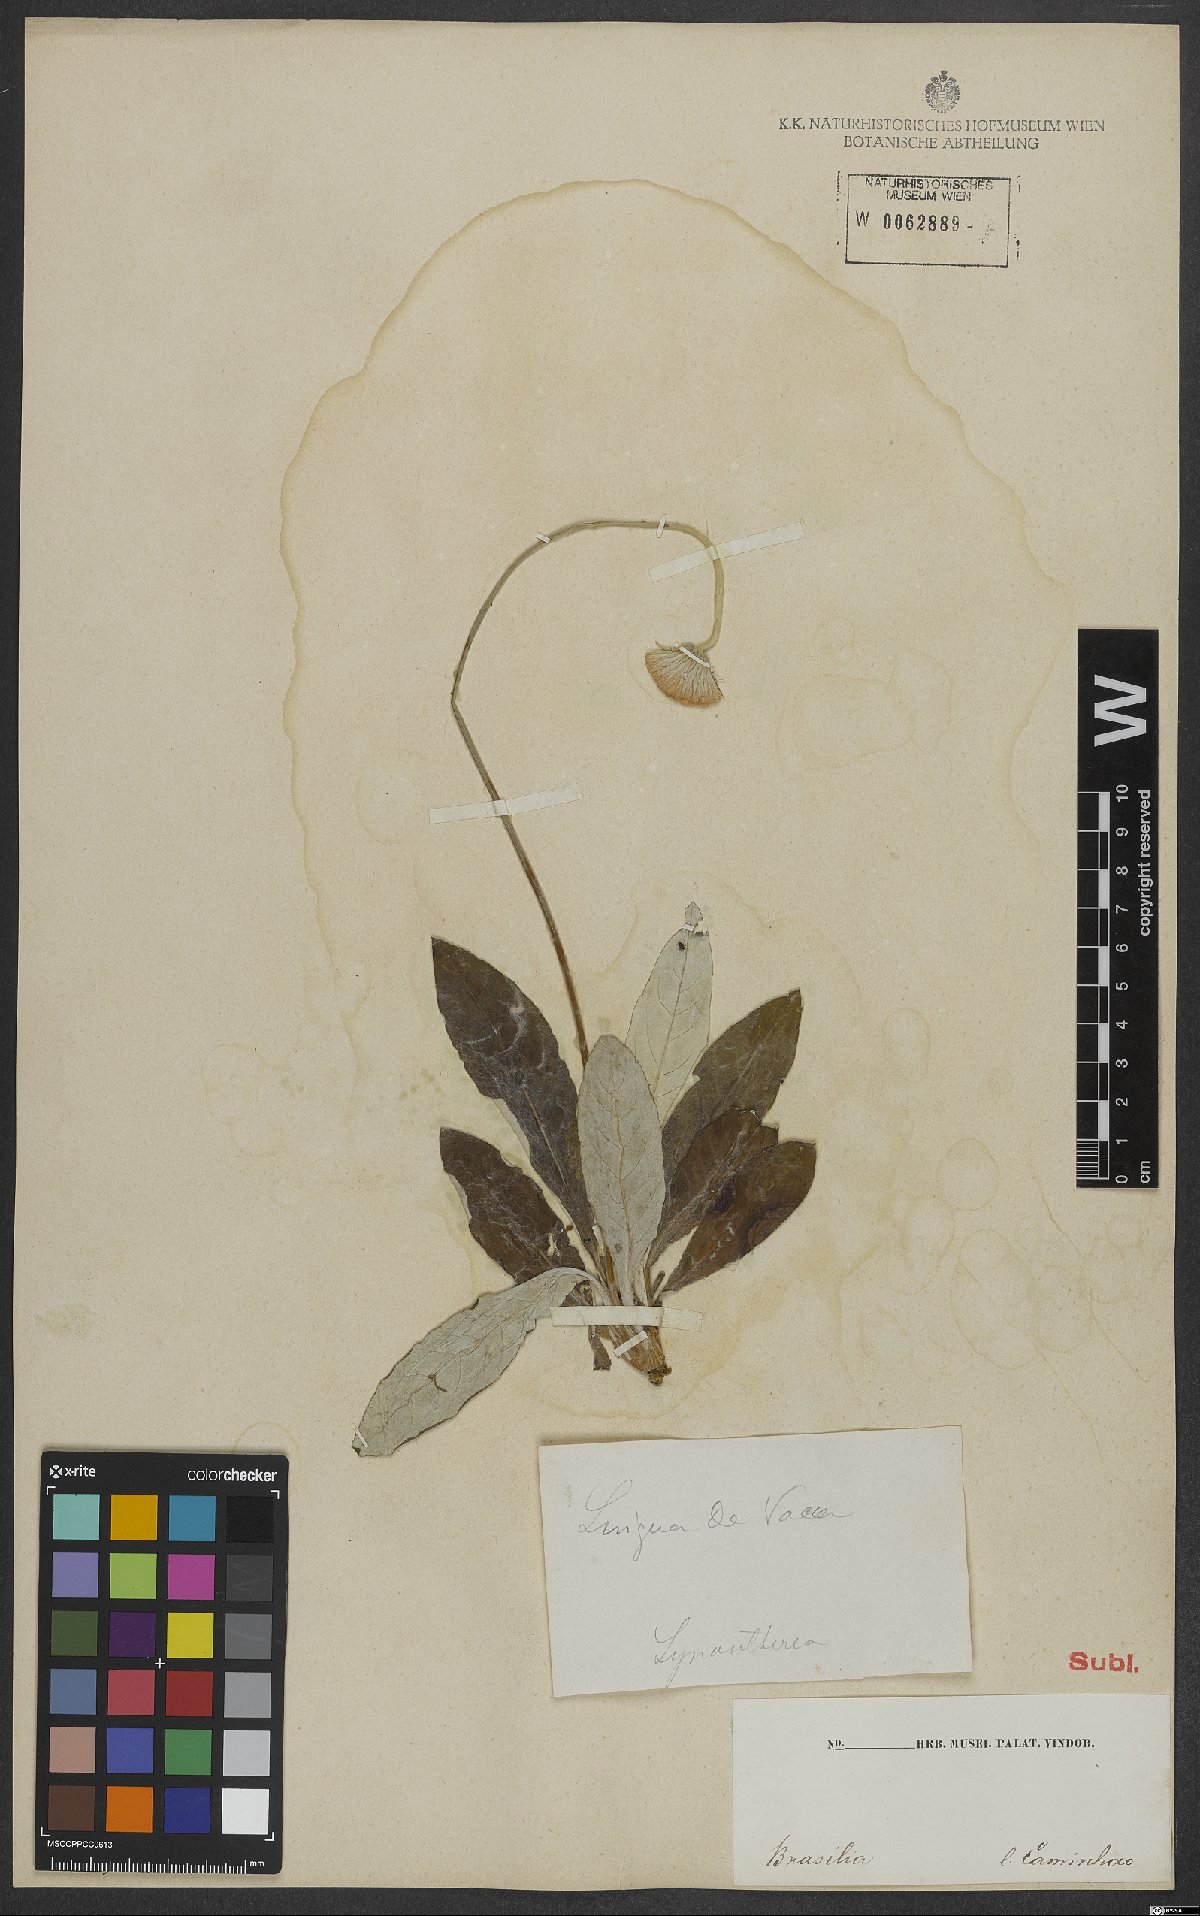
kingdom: Plantae
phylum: Tracheophyta
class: Magnoliopsida
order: Asterales
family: Asteraceae
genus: Chaptalia
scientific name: Chaptalia nutans
